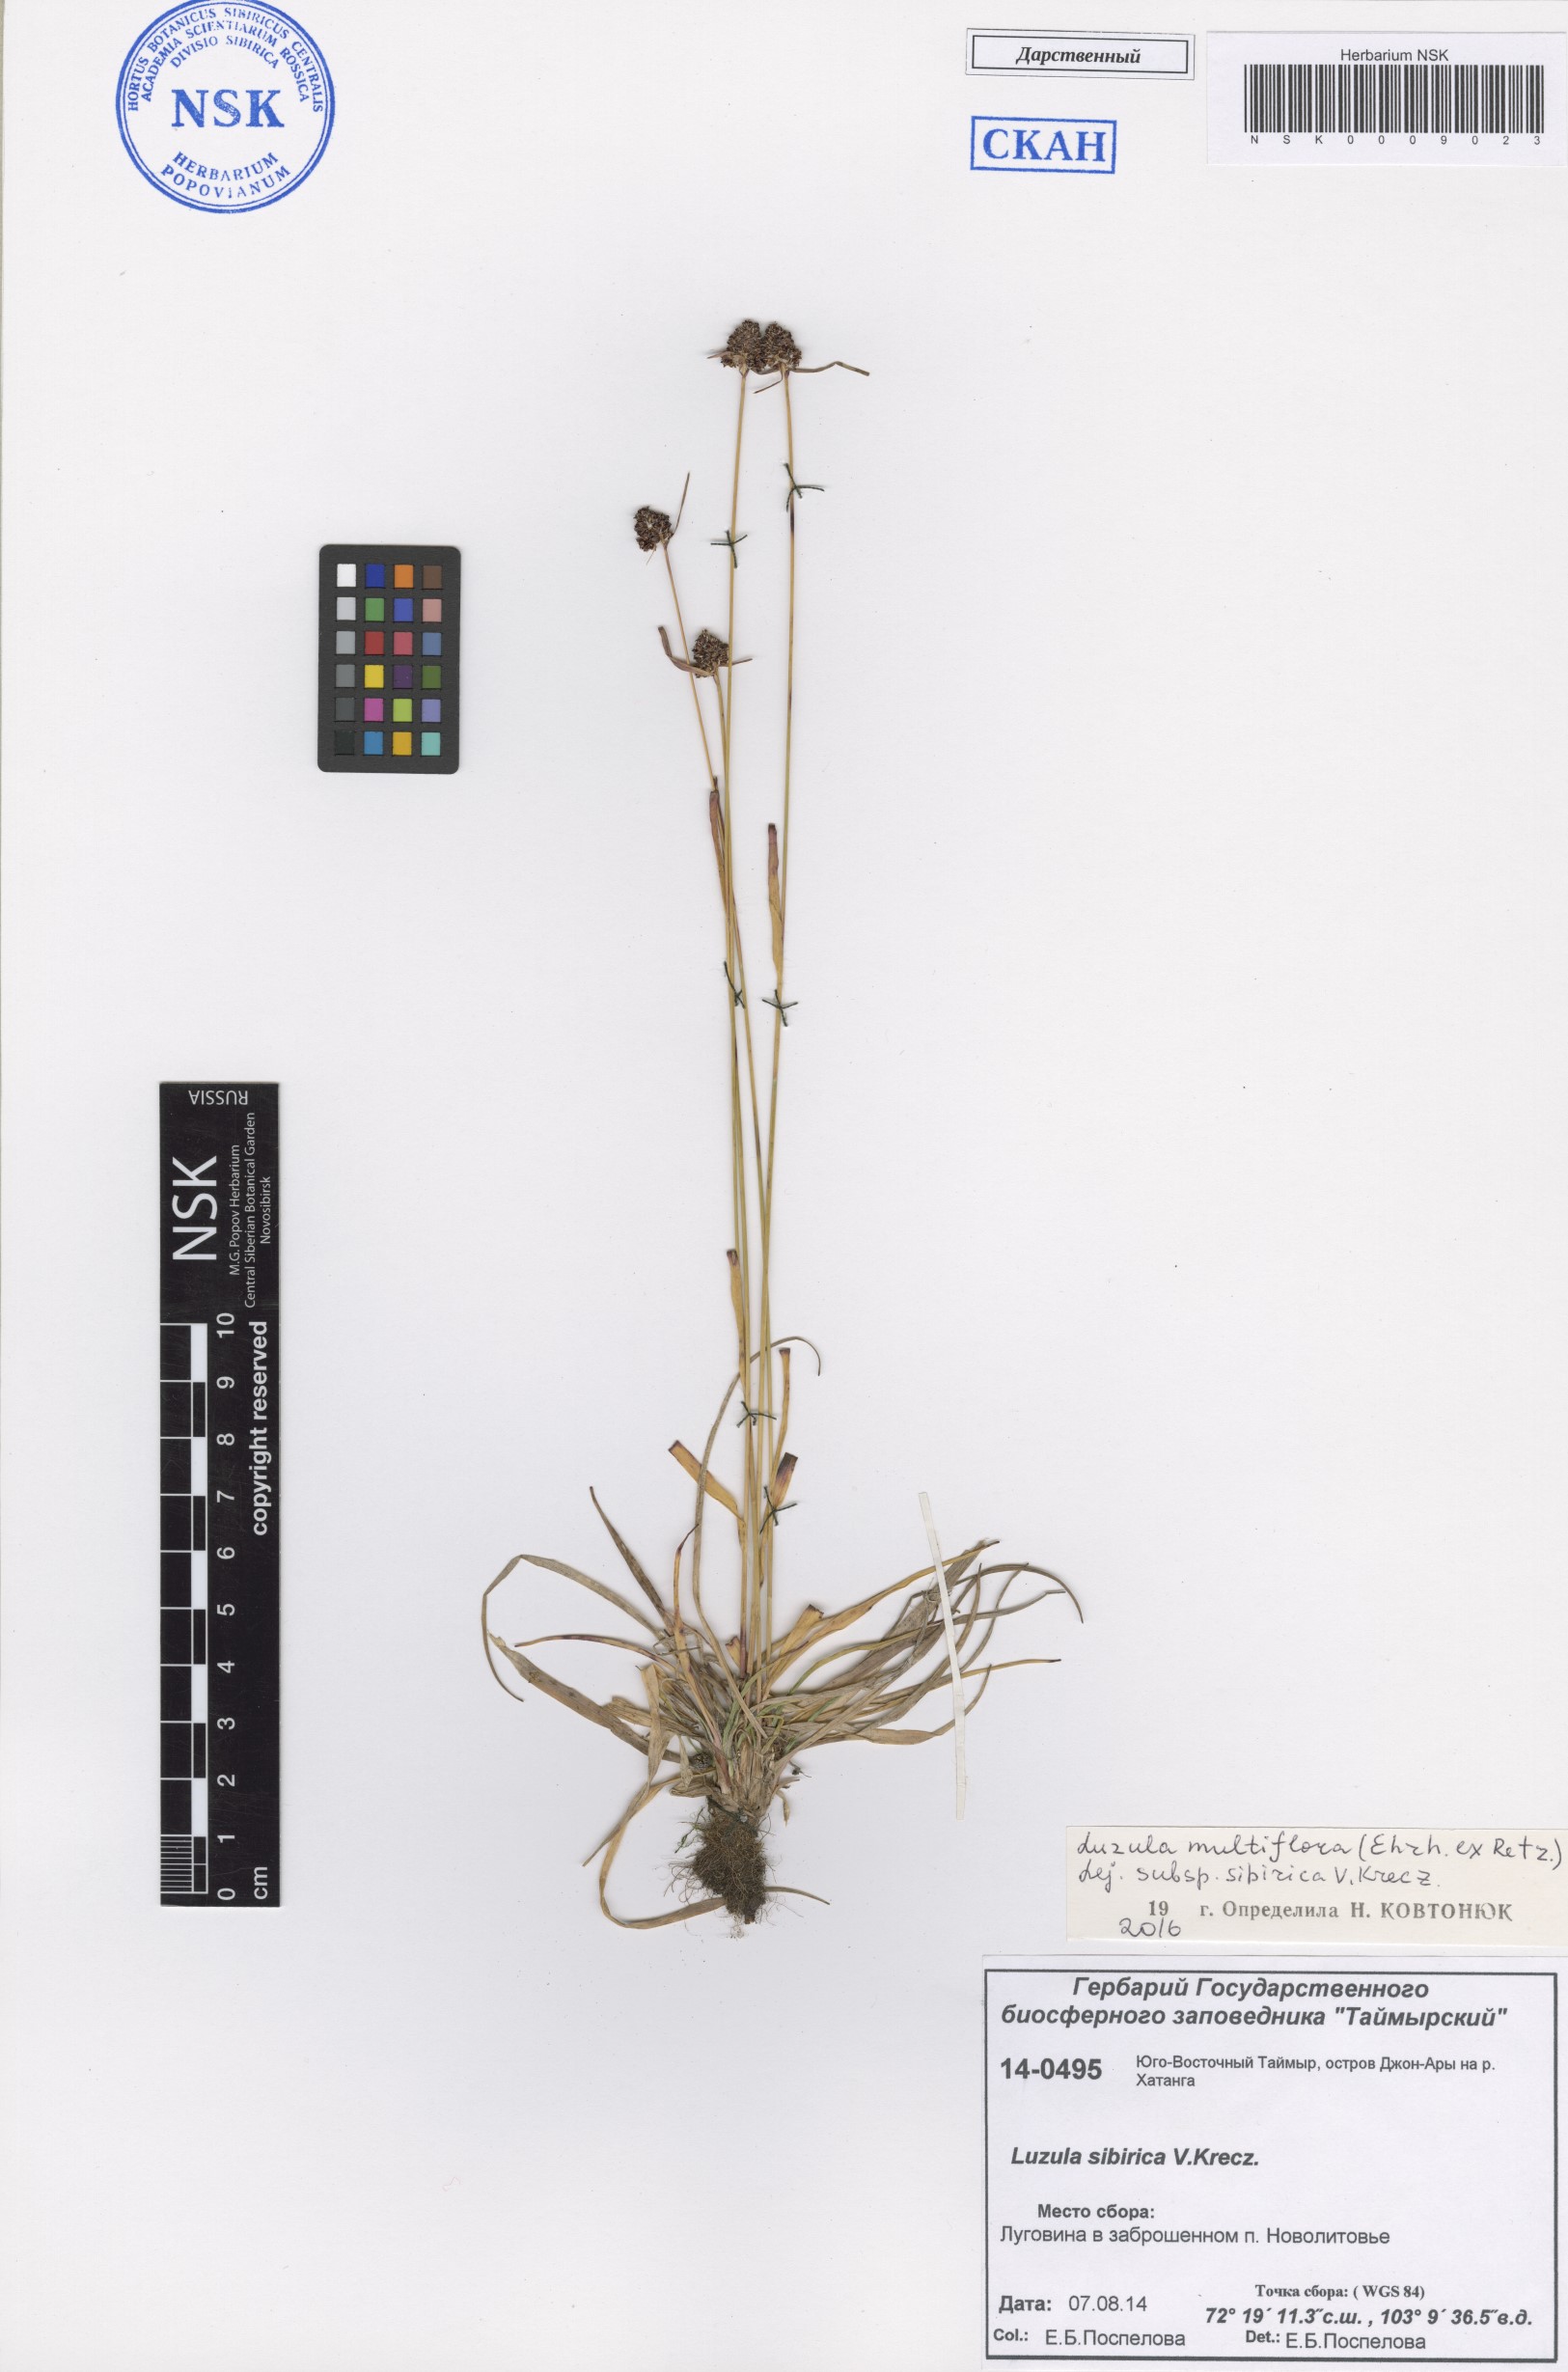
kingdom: Plantae
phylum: Tracheophyta
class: Liliopsida
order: Poales
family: Juncaceae
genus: Luzula
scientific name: Luzula multiflora
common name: Heath wood-rush
